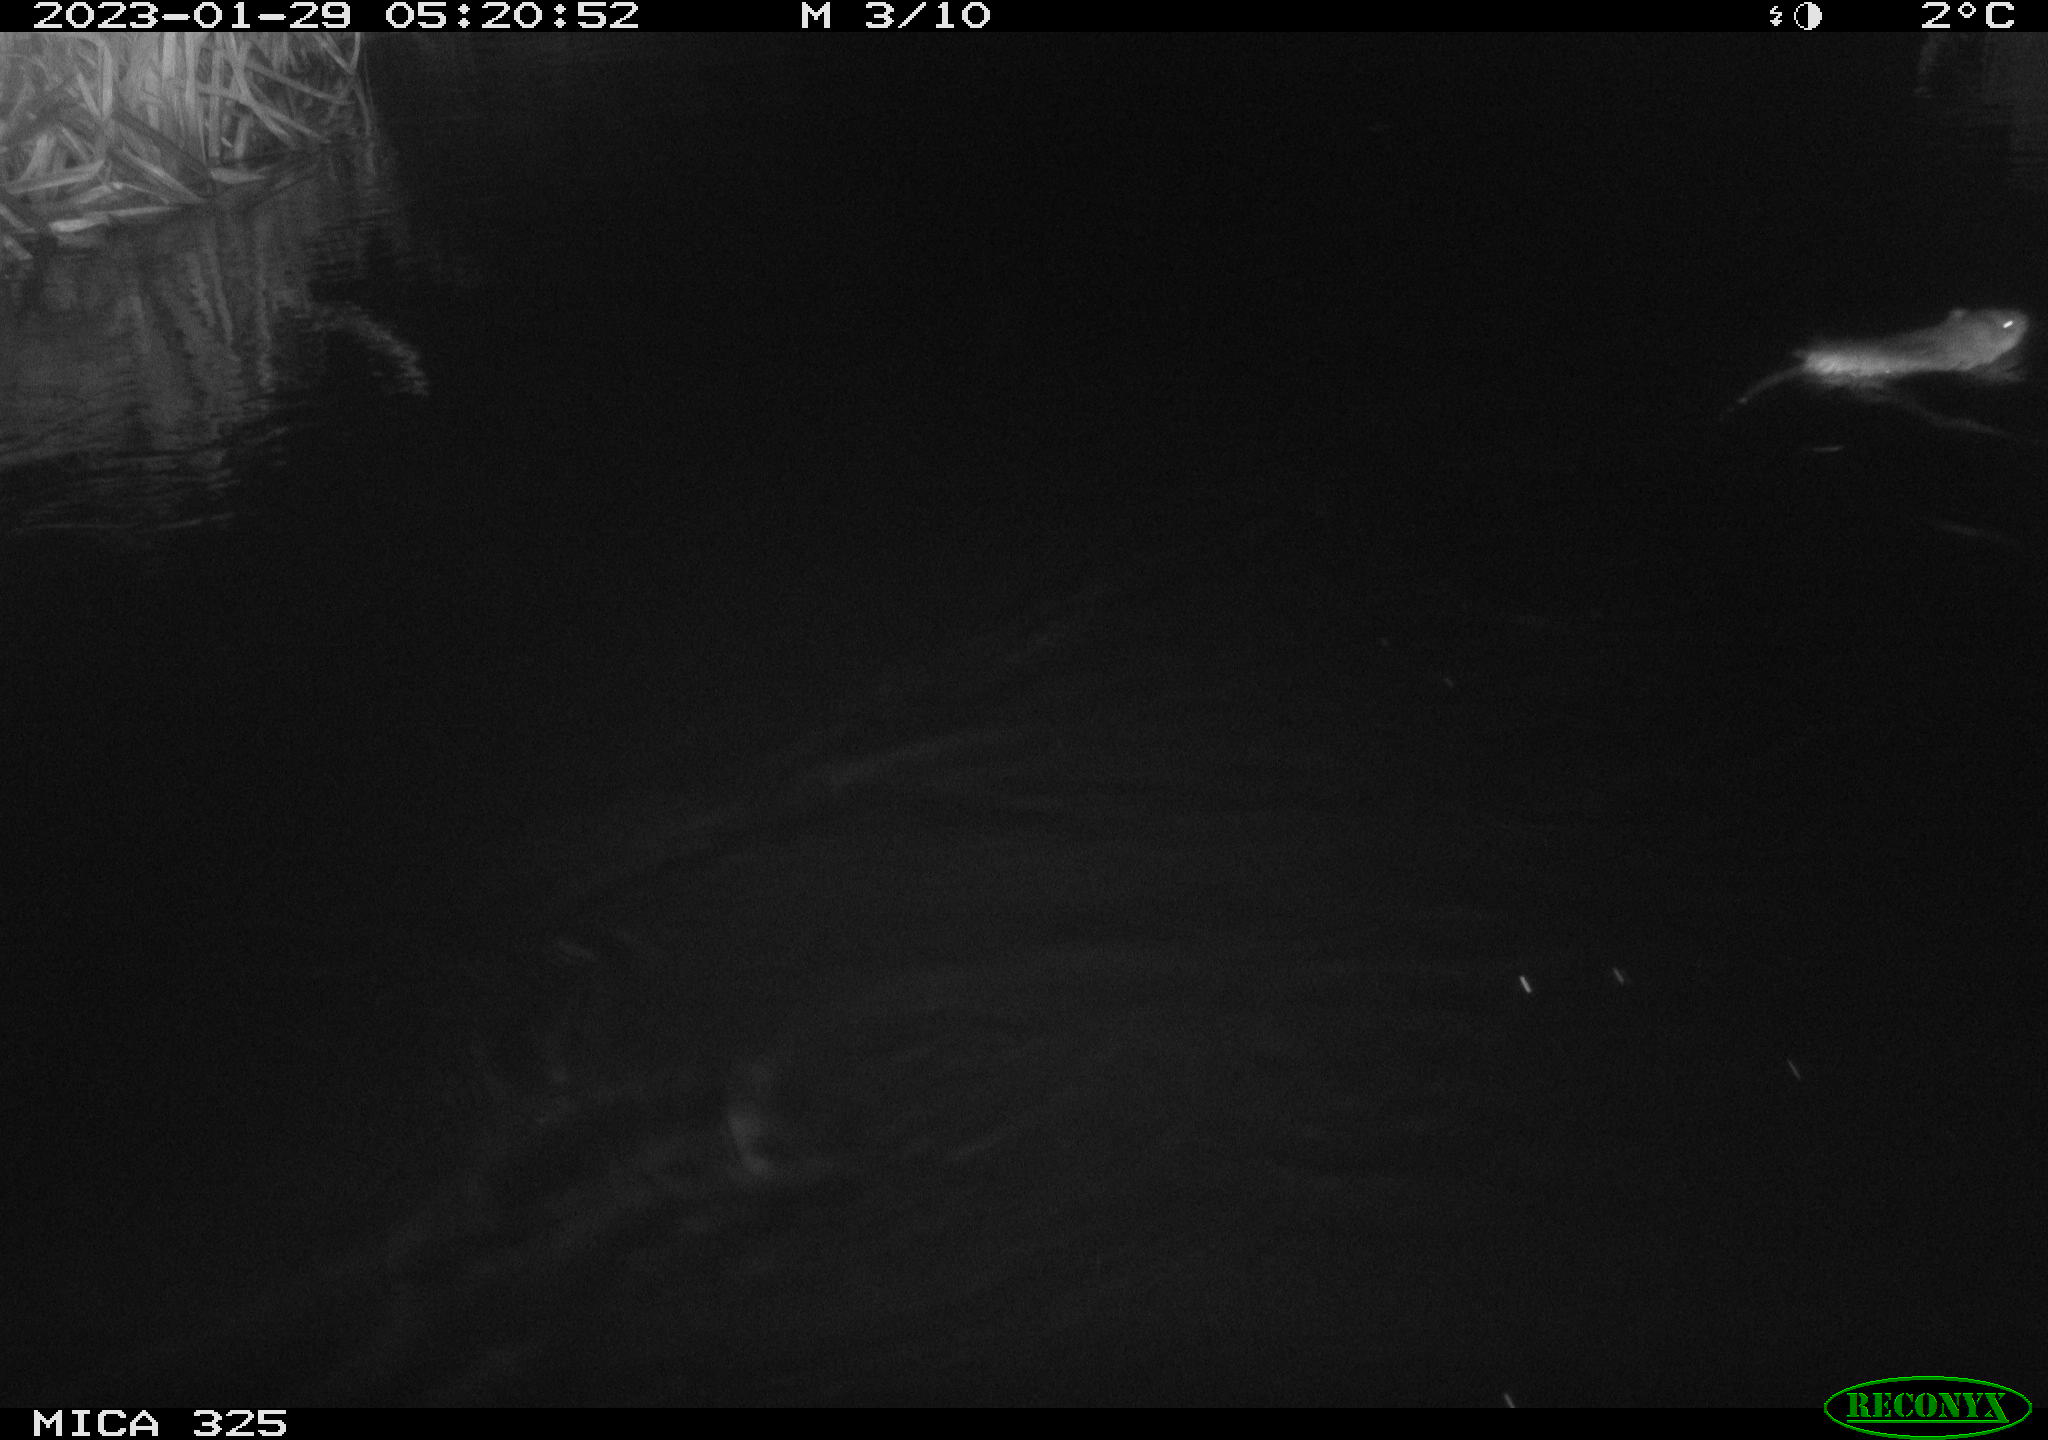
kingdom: Animalia
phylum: Chordata
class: Mammalia
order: Rodentia
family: Cricetidae
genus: Ondatra
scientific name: Ondatra zibethicus
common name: Muskrat
